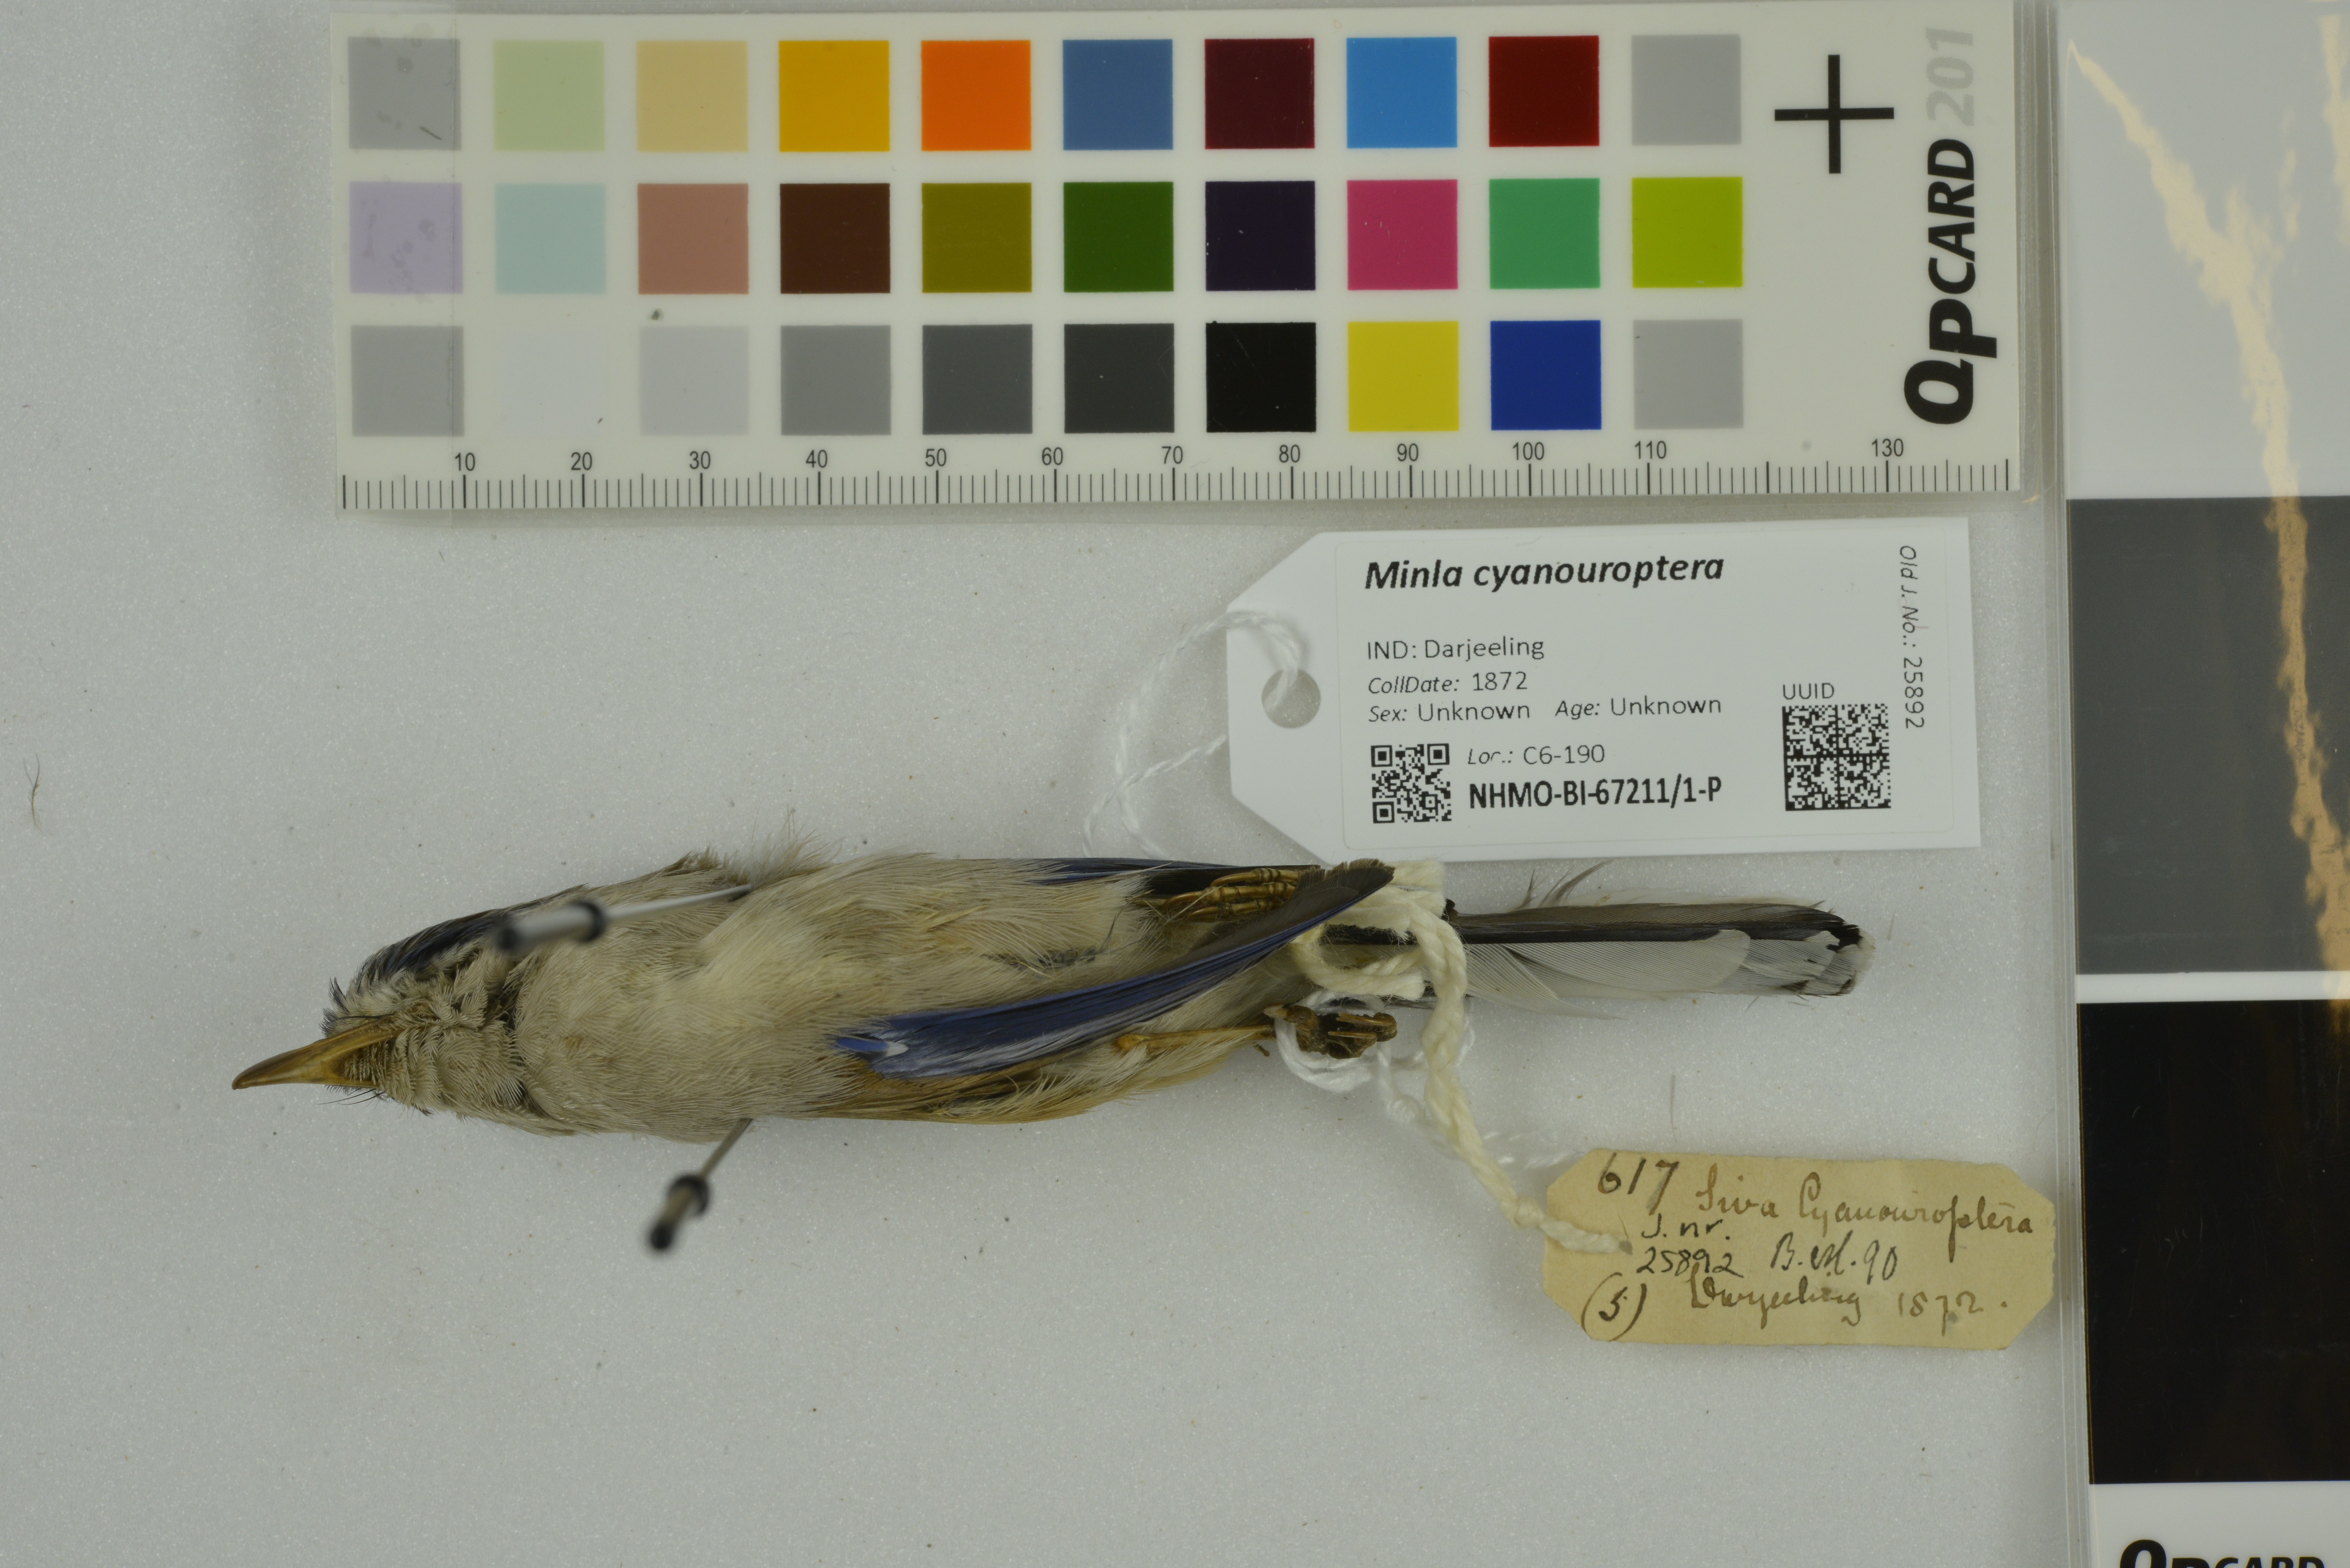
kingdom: Animalia
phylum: Chordata
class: Aves
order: Passeriformes
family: Leiothrichidae
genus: Minla
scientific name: Minla cyanouroptera
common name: Blue-winged minla
